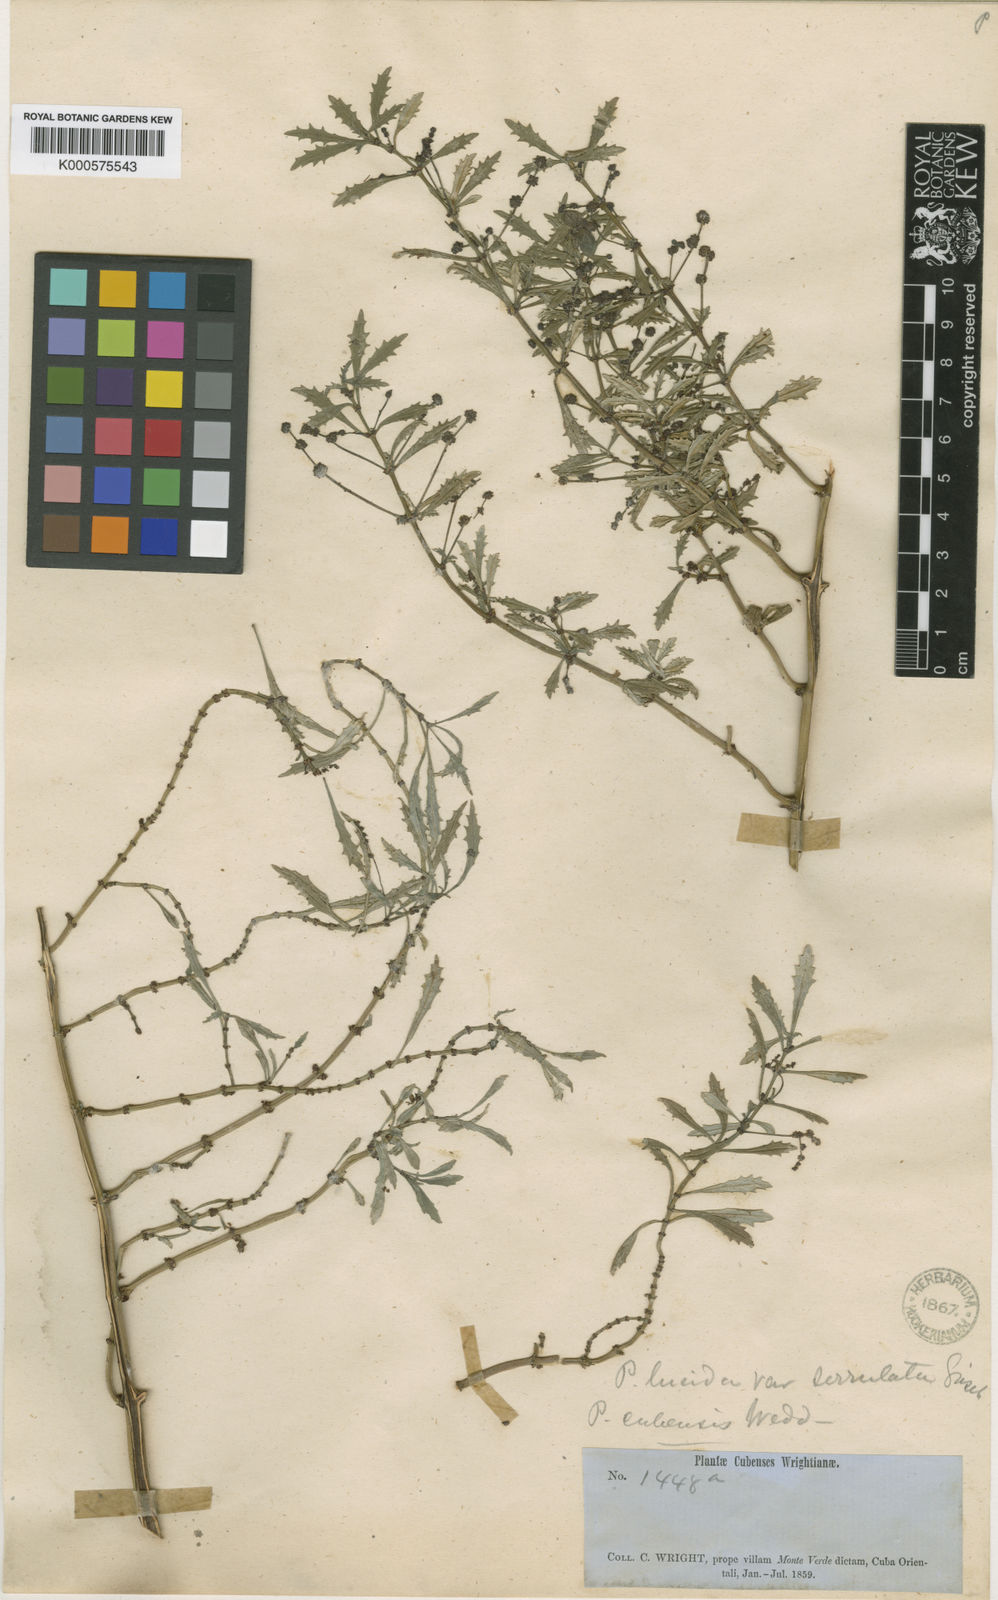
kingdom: Plantae
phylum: Tracheophyta
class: Magnoliopsida
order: Rosales
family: Urticaceae
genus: Pilea
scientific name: Pilea serrulata
